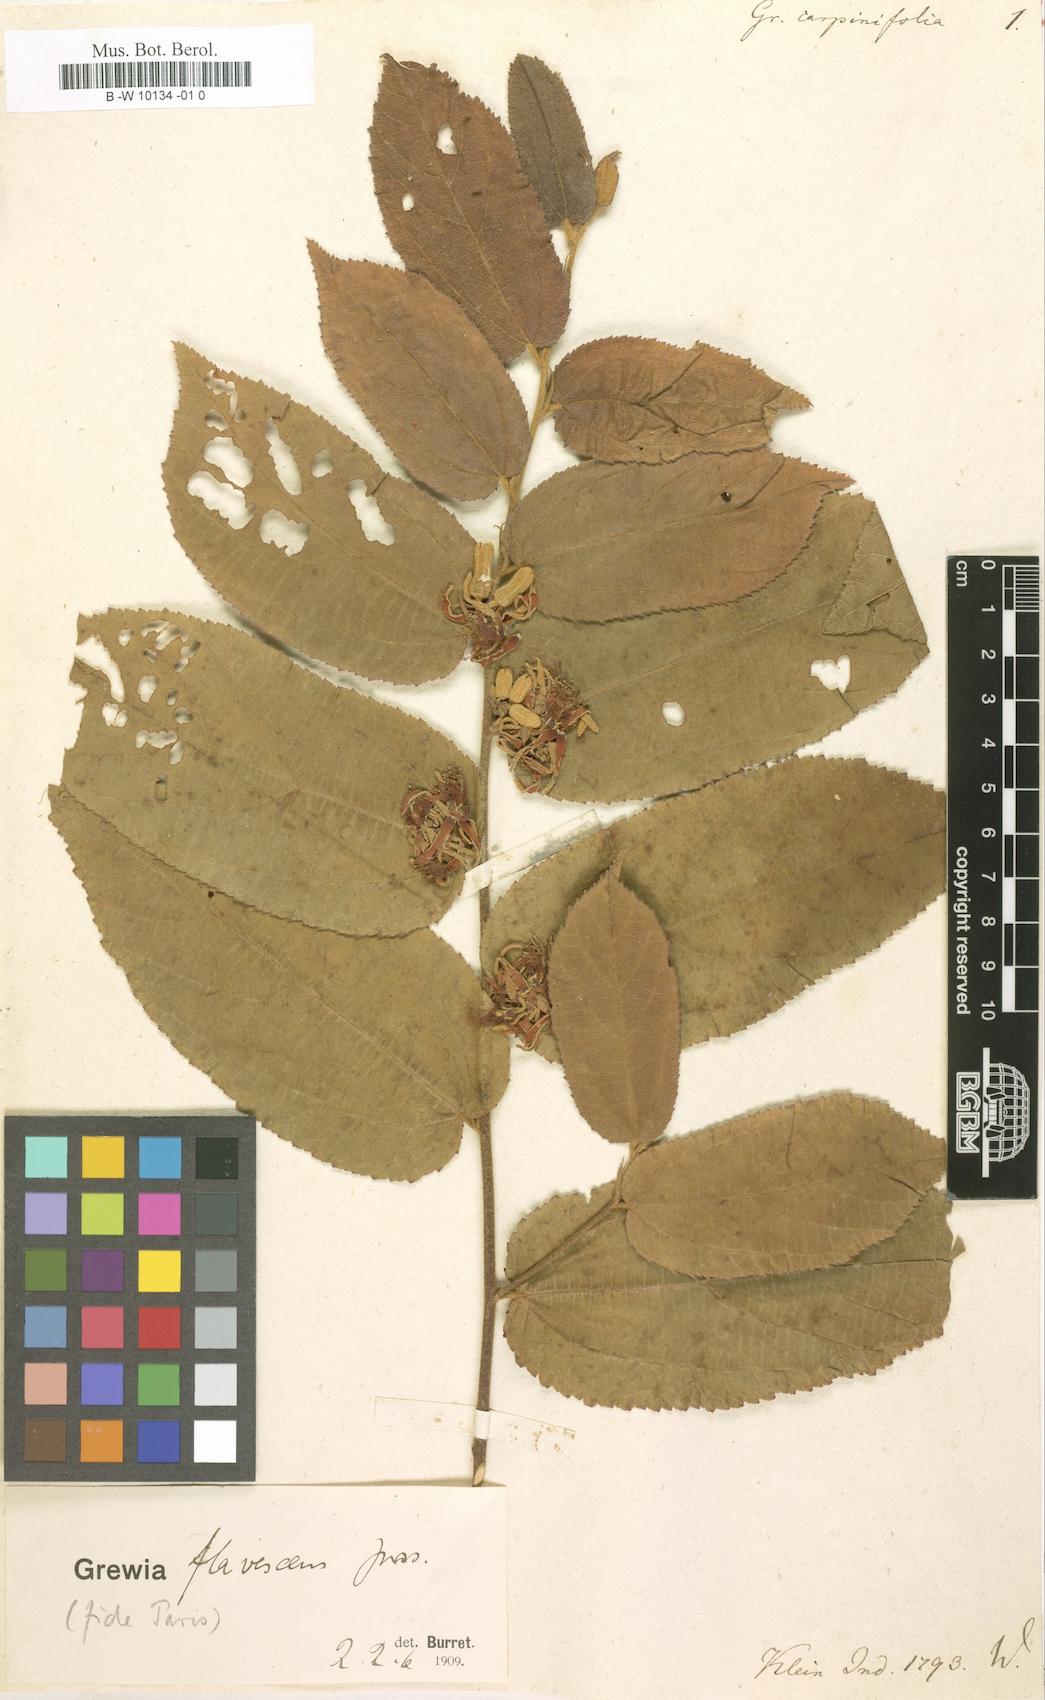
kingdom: Plantae
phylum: Tracheophyta
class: Magnoliopsida
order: Malvales
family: Malvaceae
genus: Grewia
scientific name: Grewia carpinifolia
